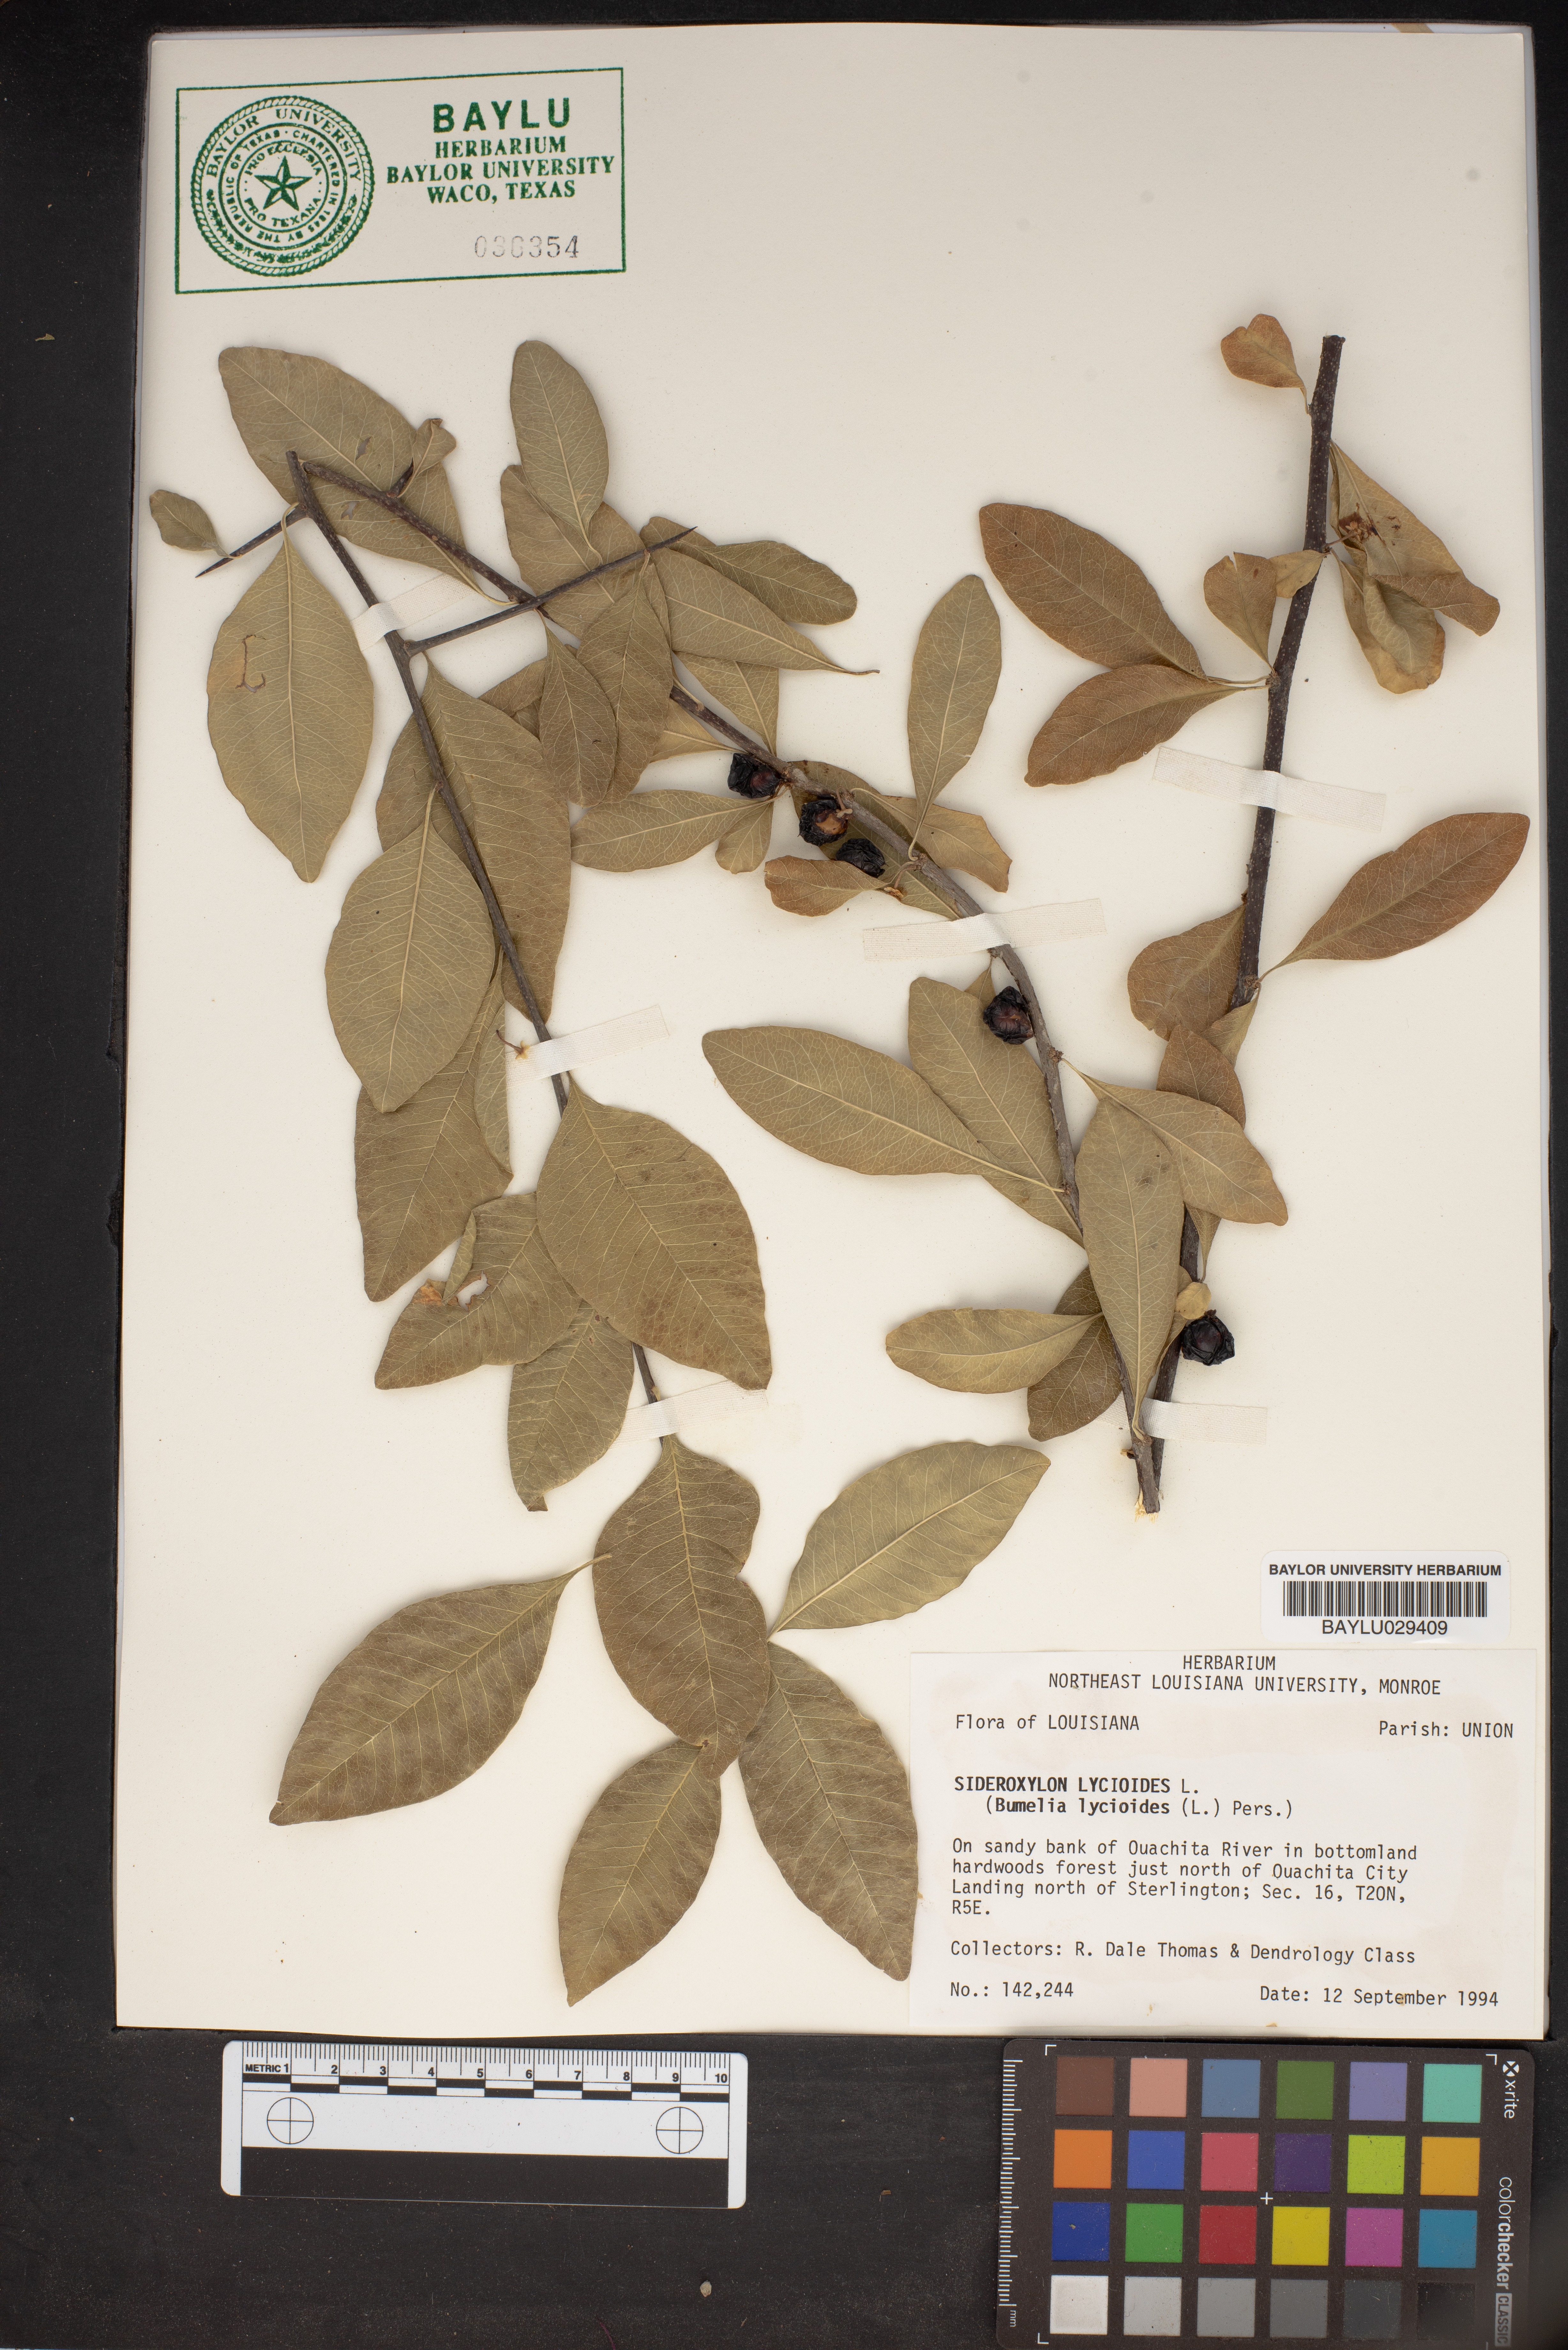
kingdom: Plantae
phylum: Tracheophyta
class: Magnoliopsida
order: Ericales
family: Sapotaceae
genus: Sideroxylon
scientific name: Sideroxylon lycioides
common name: Buckthorn bumelia
